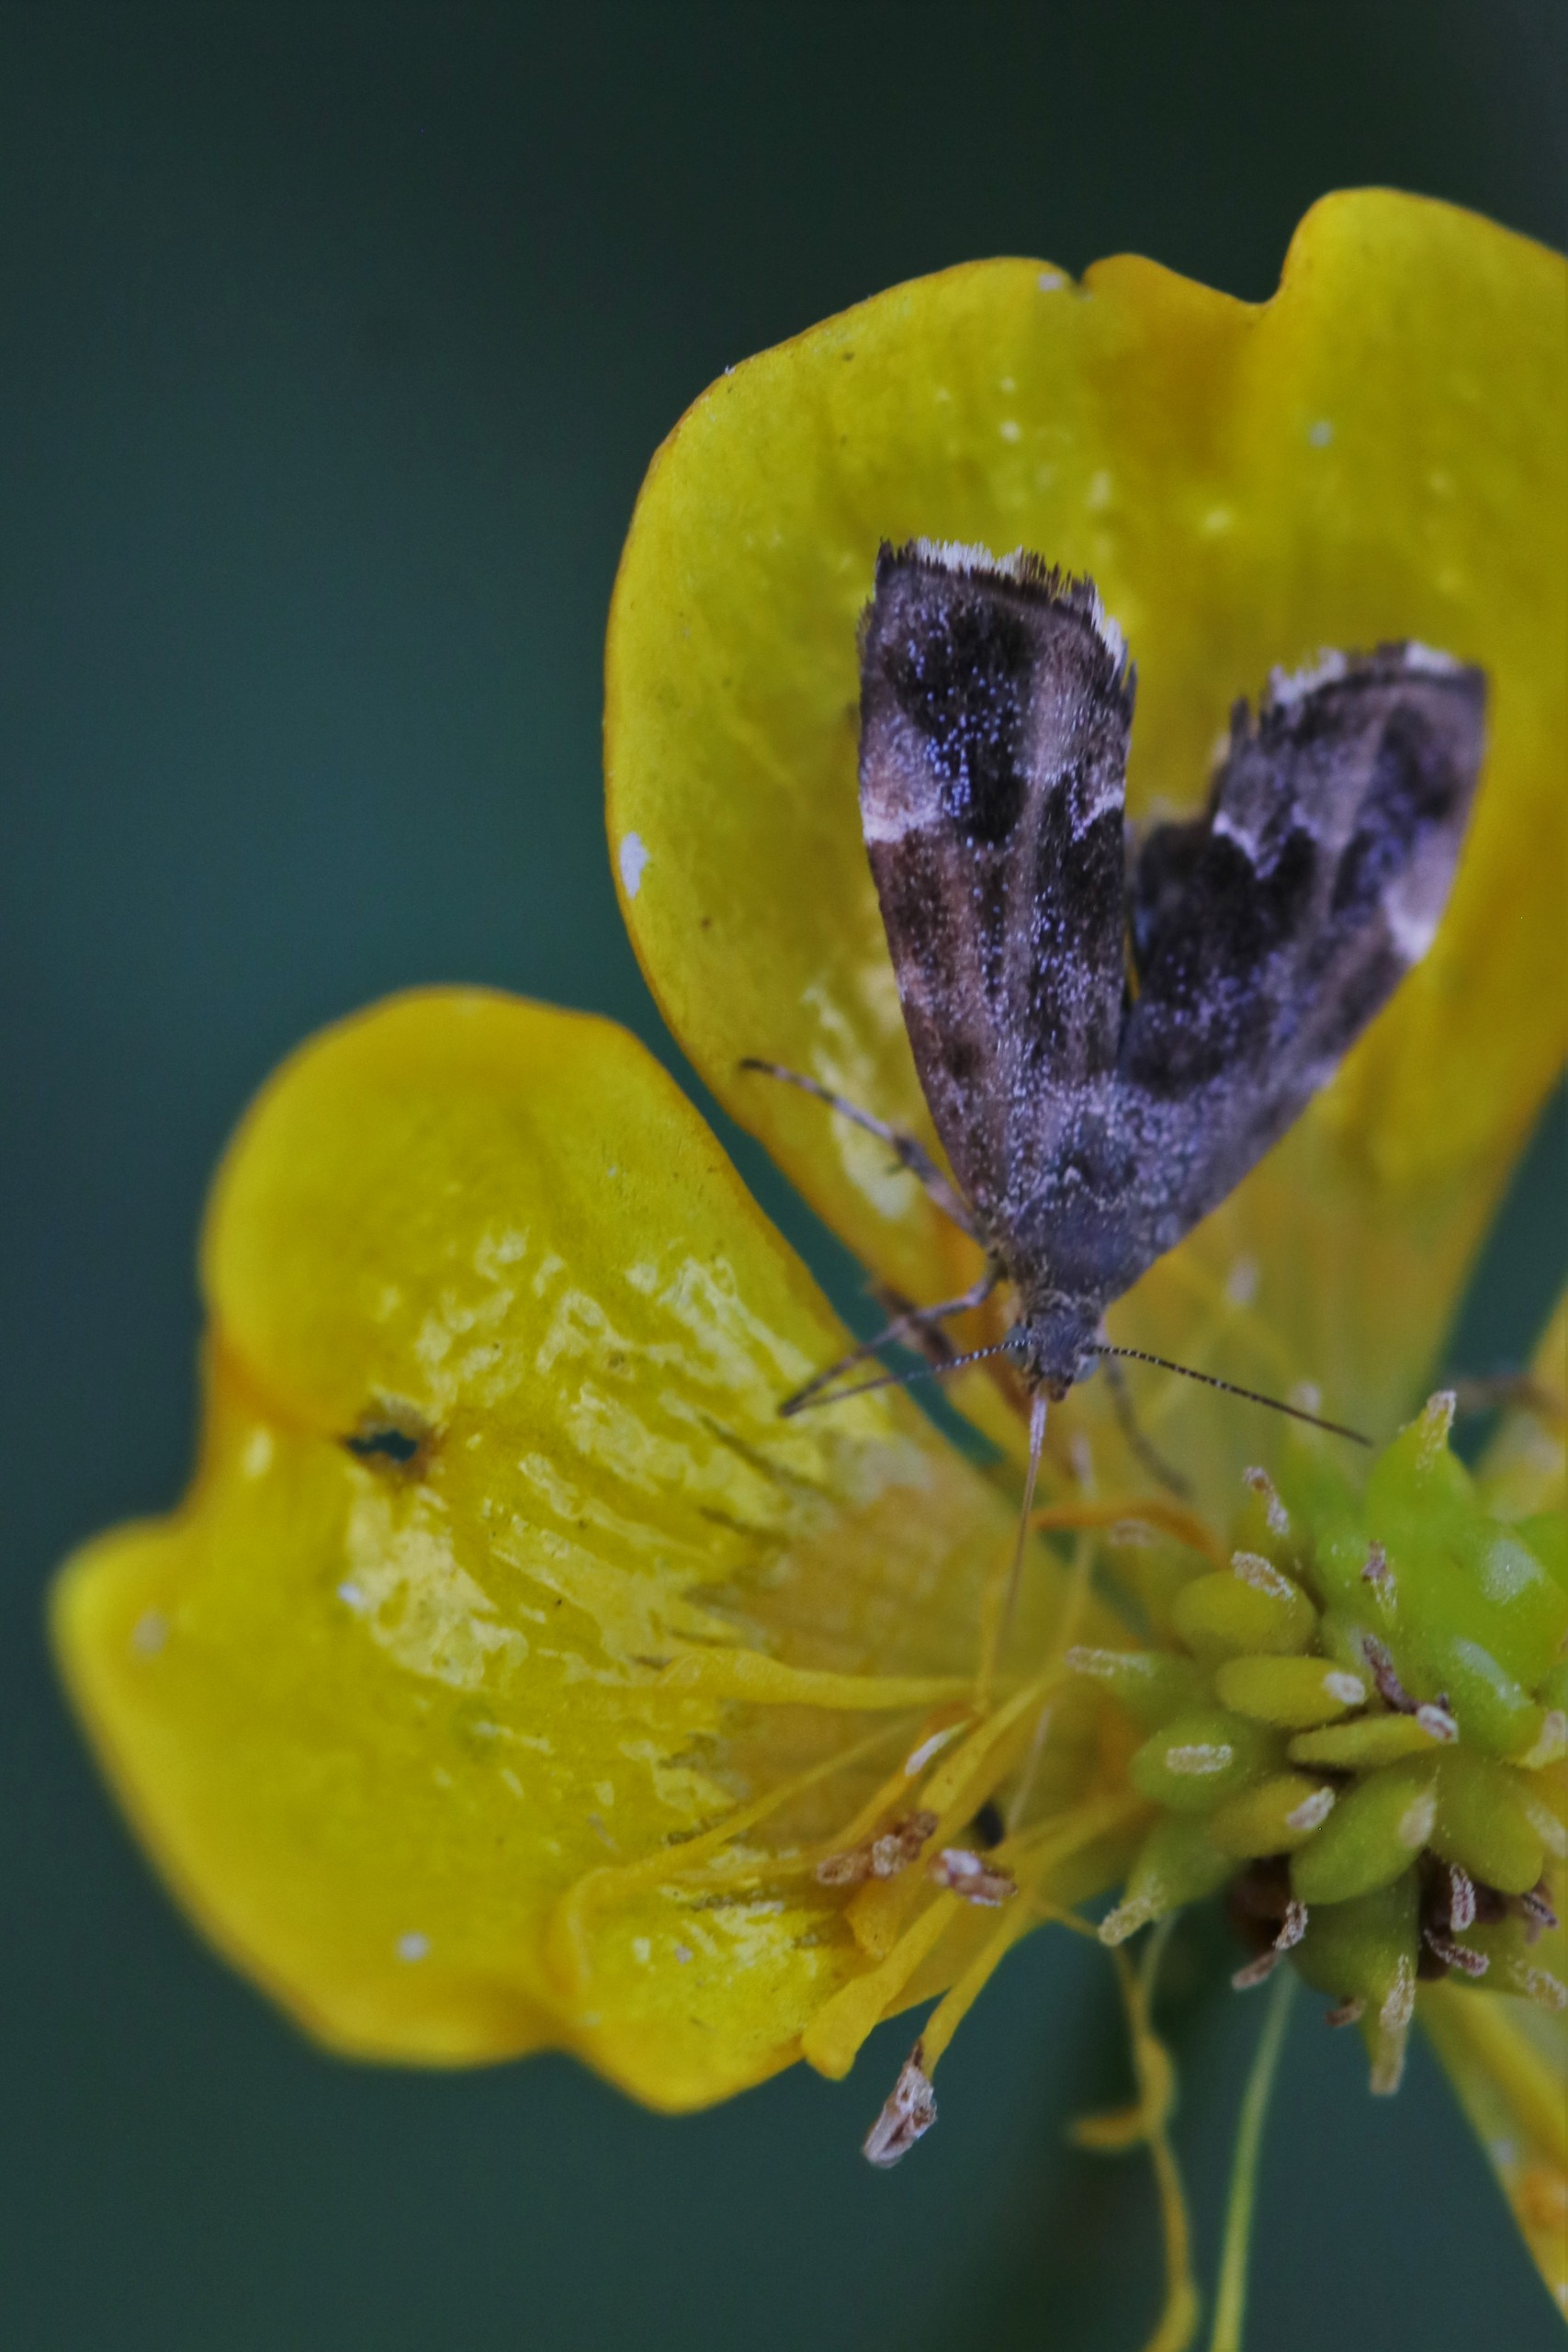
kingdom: Animalia
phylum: Arthropoda
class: Insecta
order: Lepidoptera
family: Choreutidae
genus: Anthophila
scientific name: Anthophila fabriciana
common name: Bredvinget nældevikler
